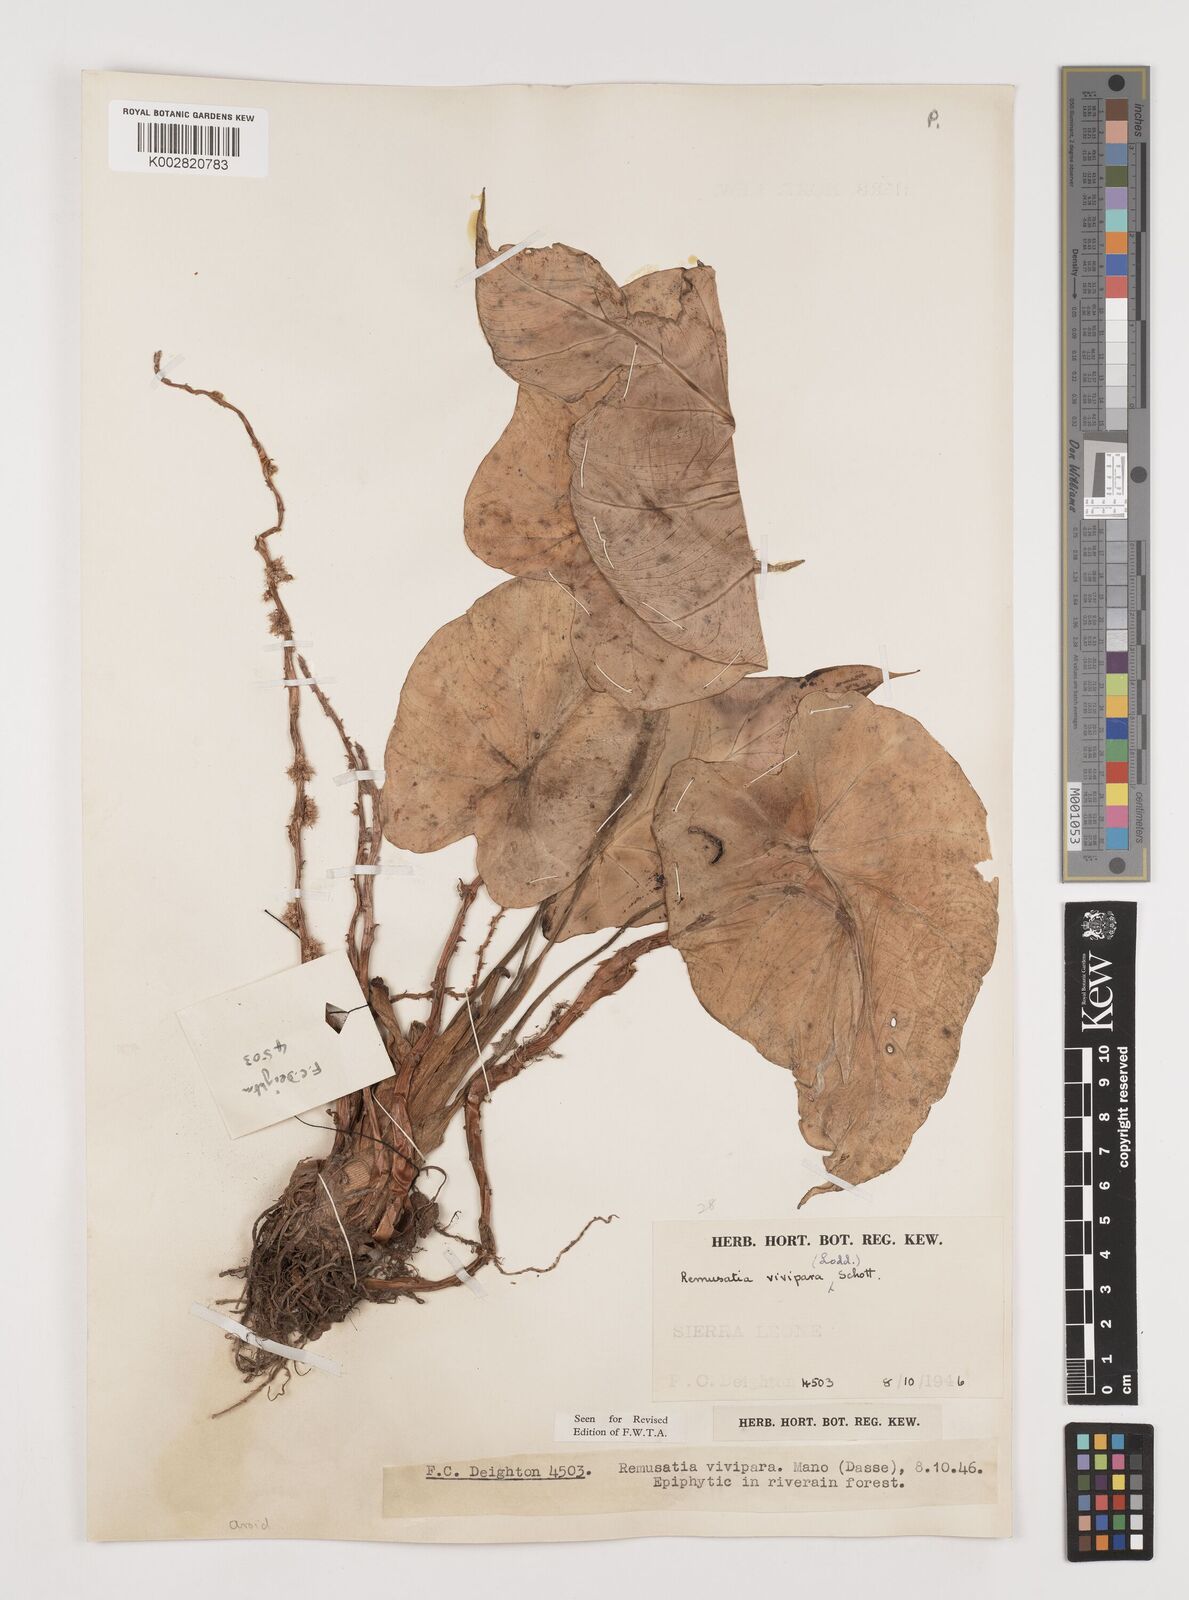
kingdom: Plantae
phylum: Tracheophyta
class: Liliopsida
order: Alismatales
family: Araceae
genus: Remusatia
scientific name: Remusatia vivipara
